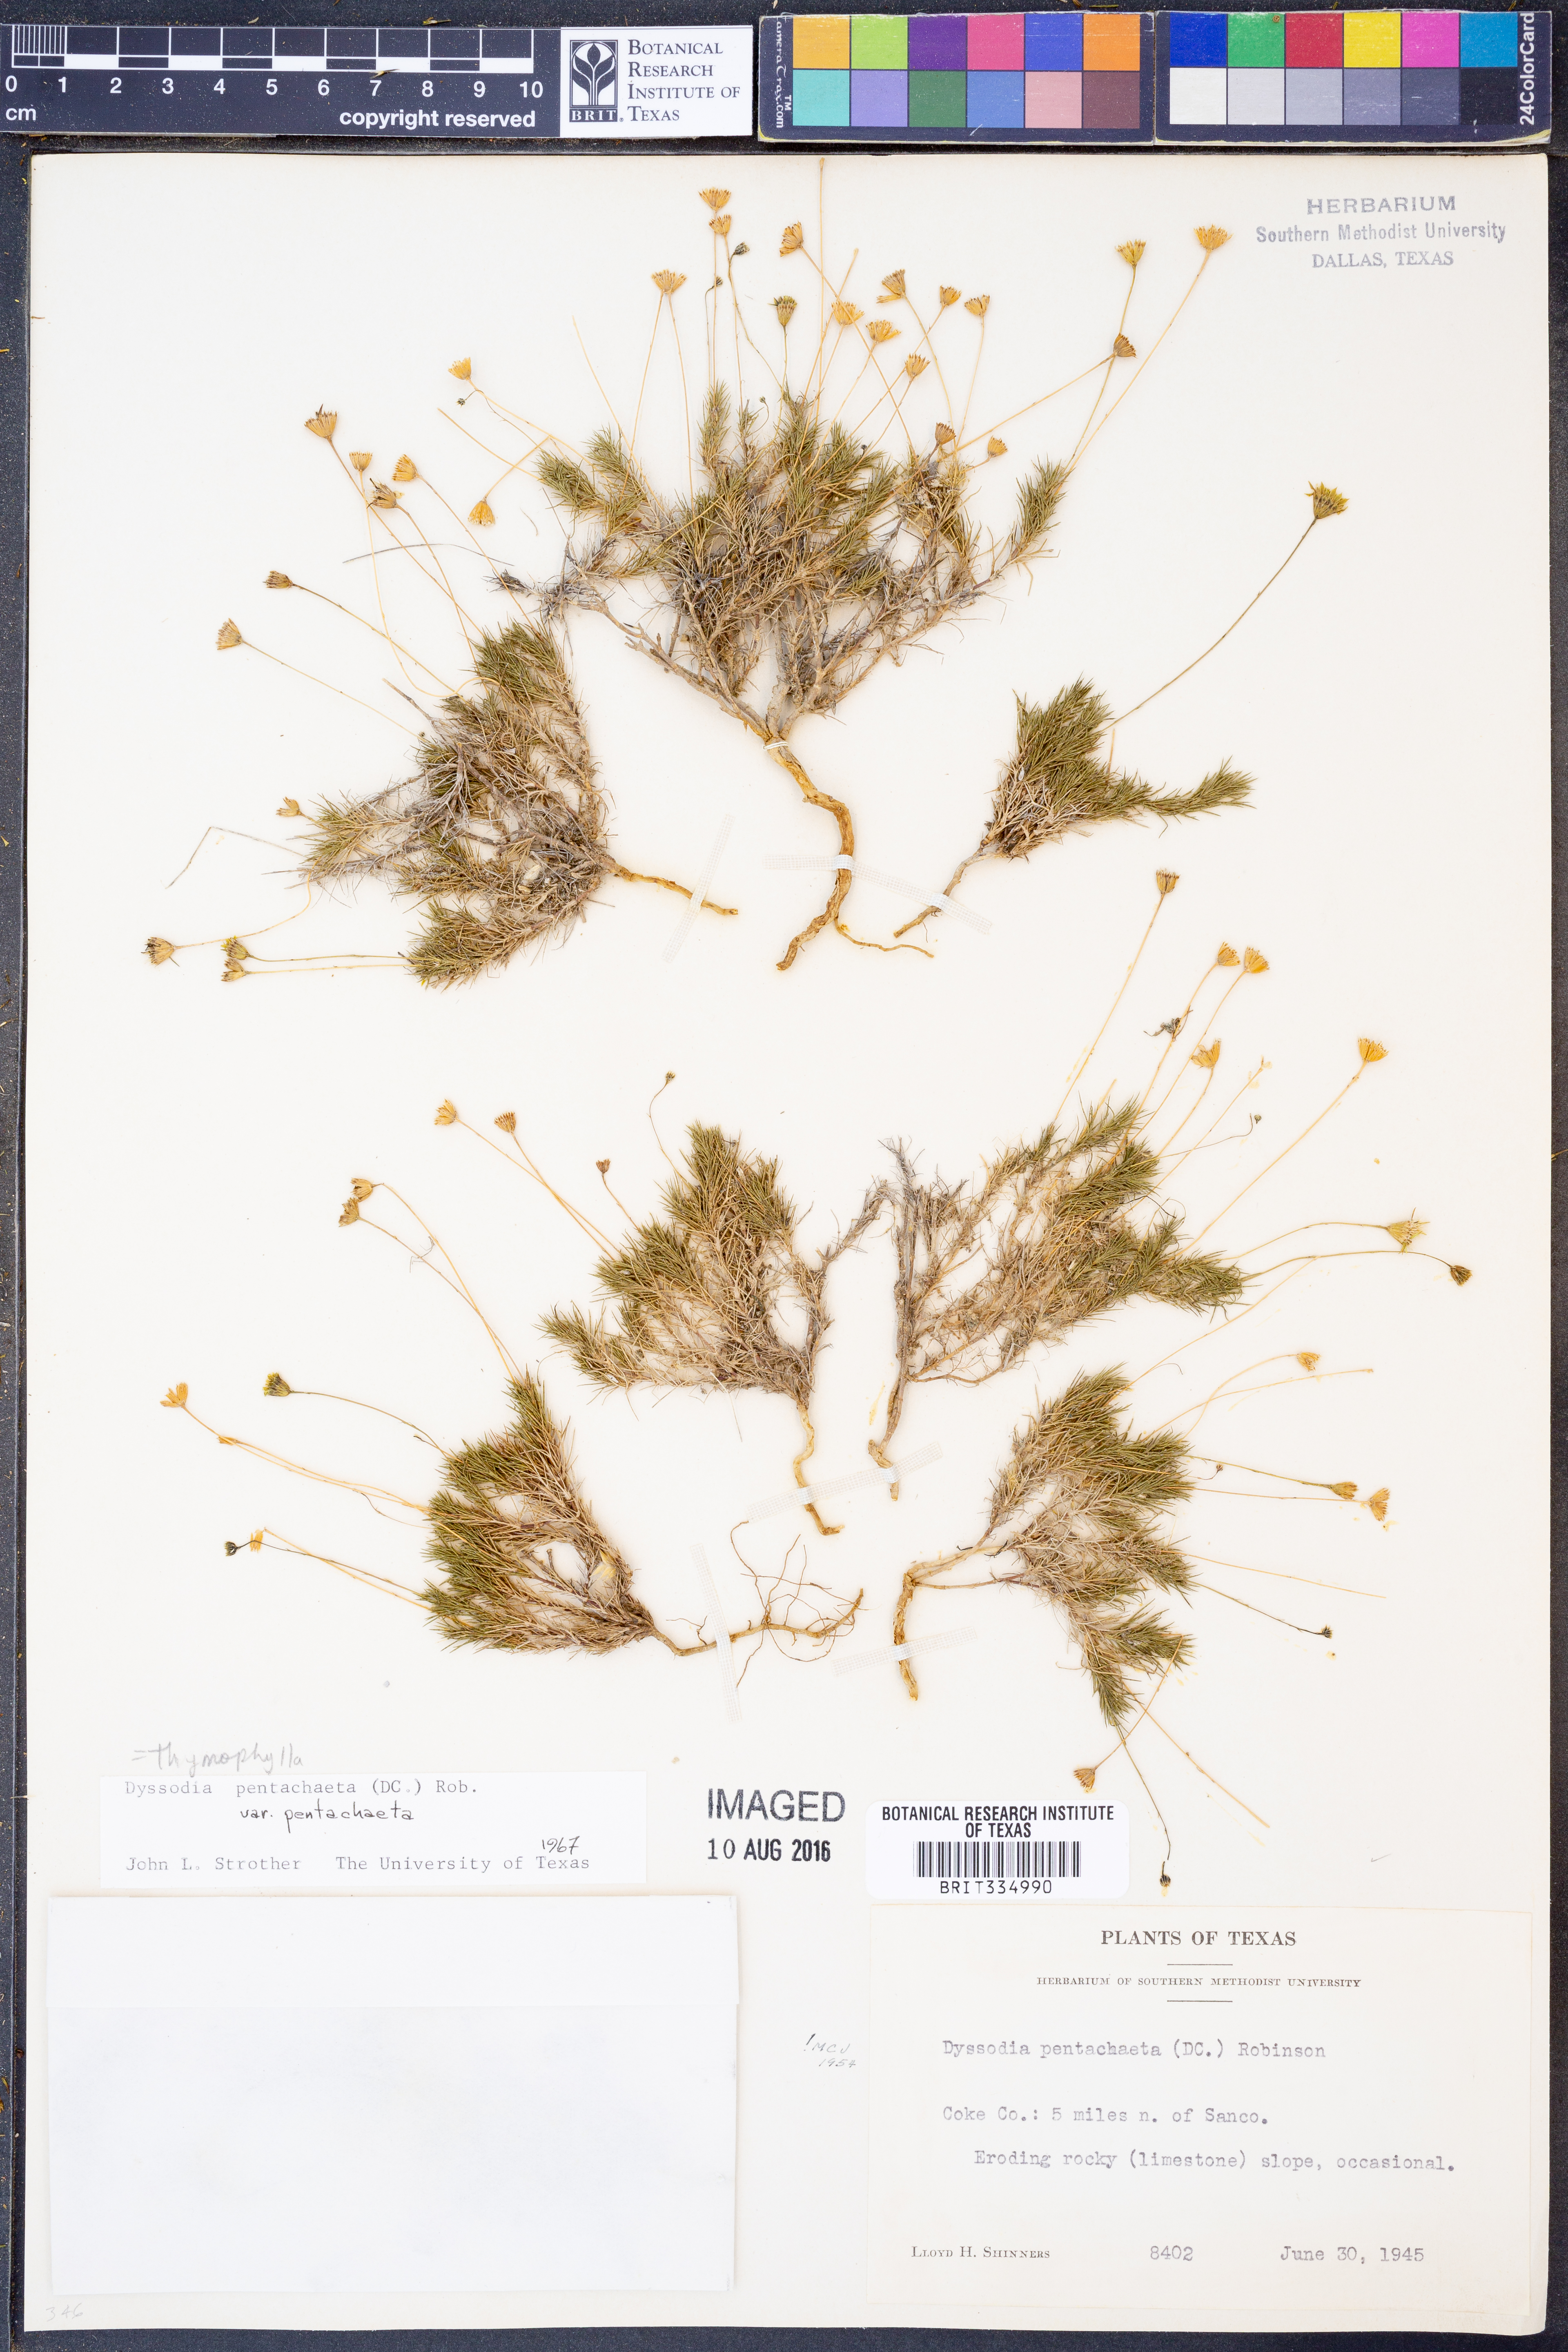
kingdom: Plantae
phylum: Tracheophyta
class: Magnoliopsida
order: Asterales
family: Asteraceae
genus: Thymophylla
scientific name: Thymophylla pentachaeta
